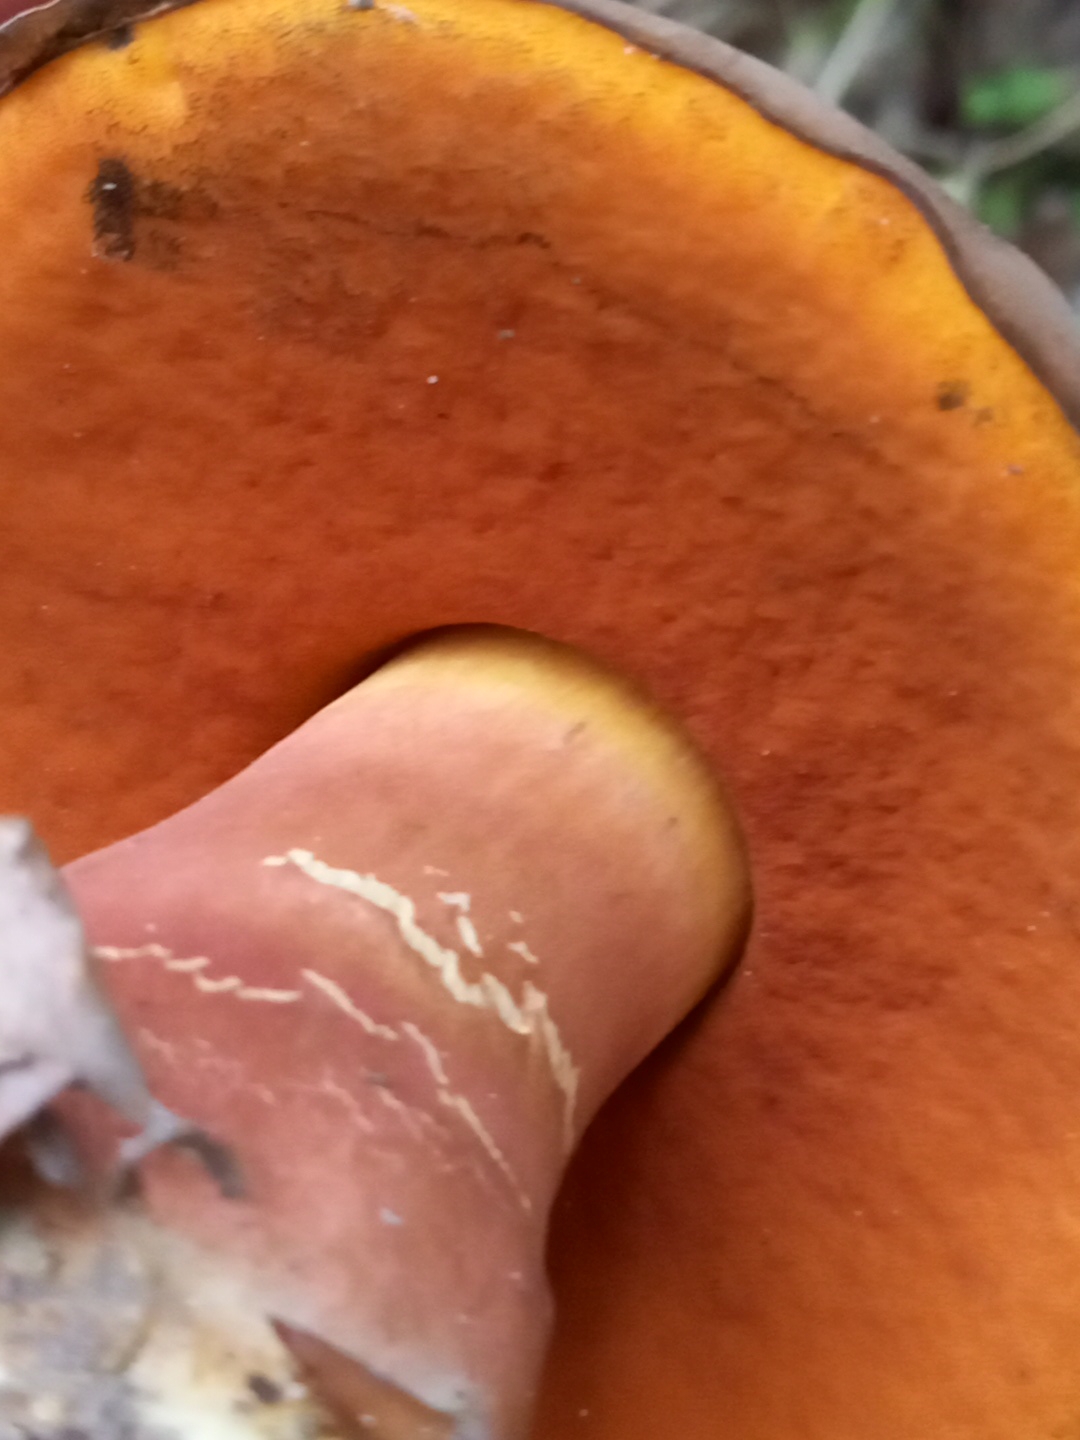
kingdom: Fungi
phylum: Basidiomycota
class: Agaricomycetes
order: Boletales
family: Boletaceae
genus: Neoboletus
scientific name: Neoboletus erythropus
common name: punktstokket indigorørhat
